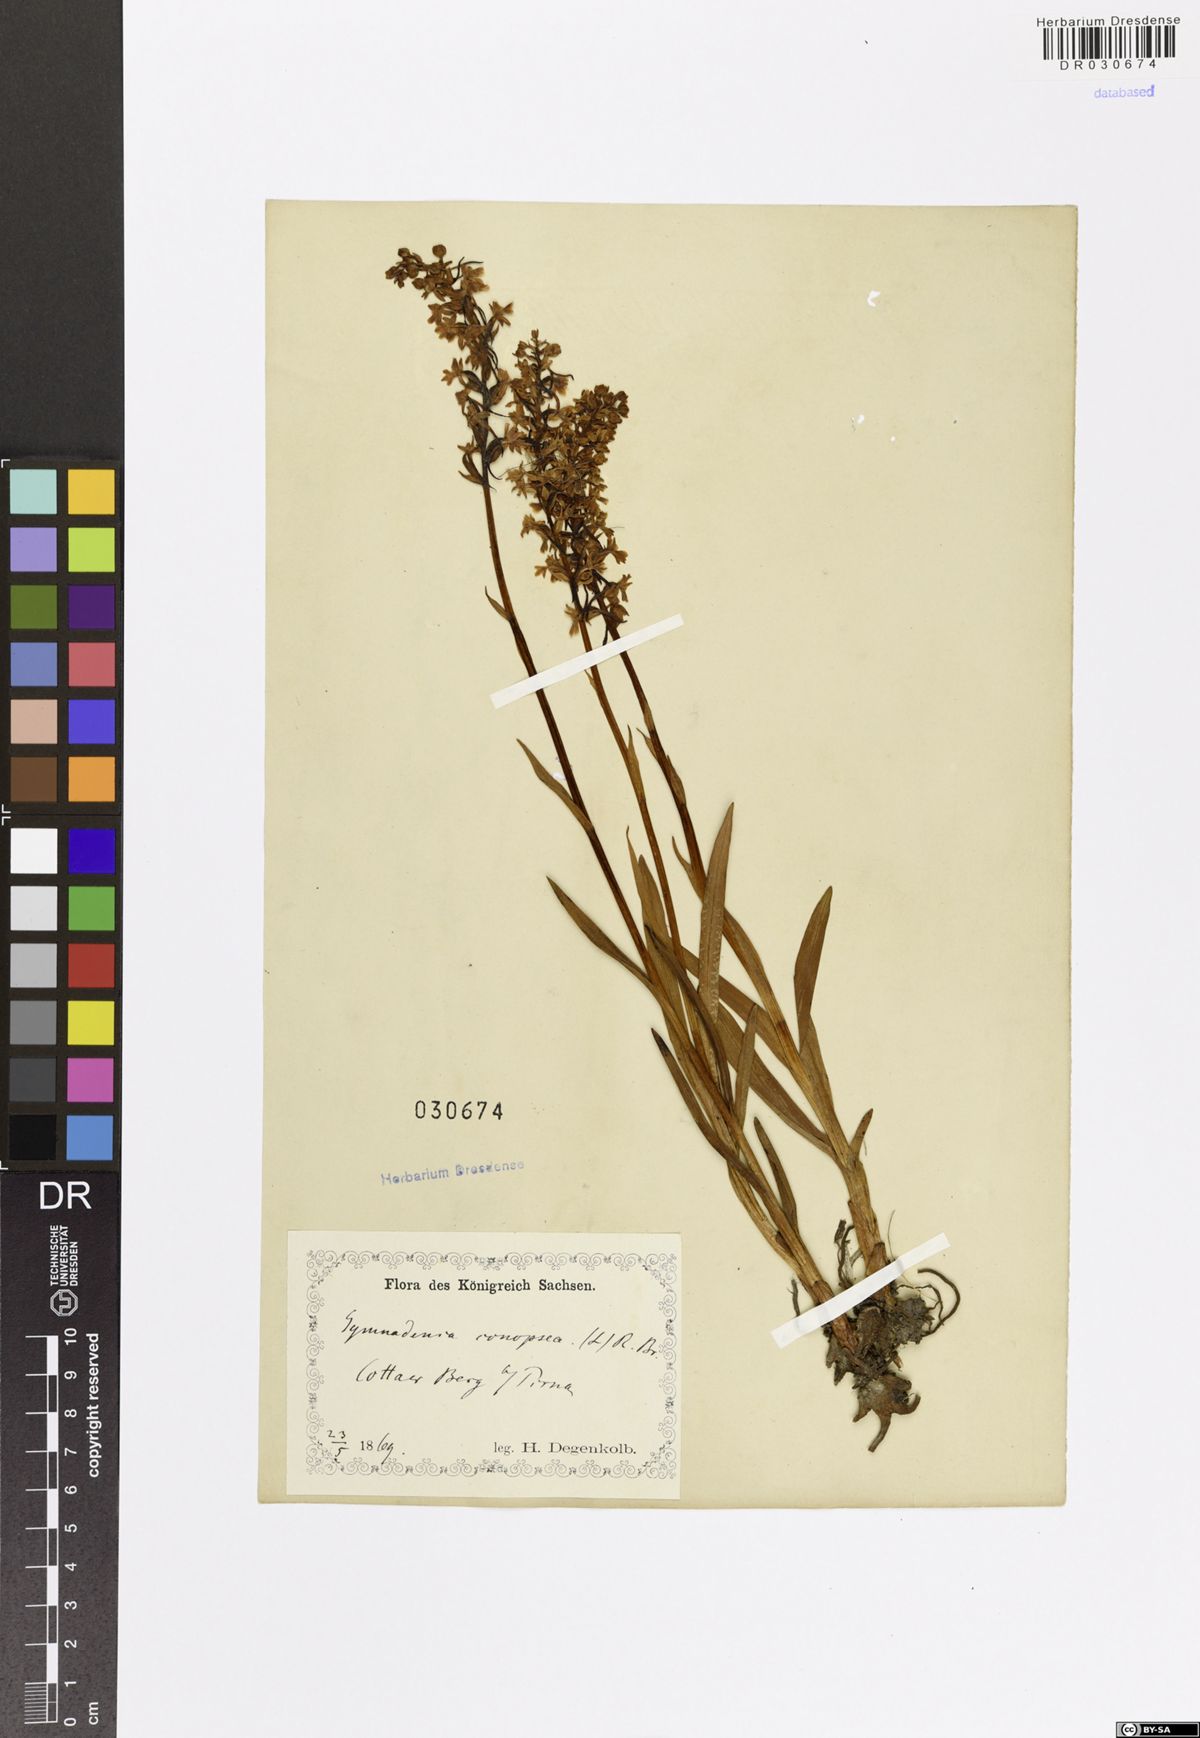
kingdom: Plantae
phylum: Tracheophyta
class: Liliopsida
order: Asparagales
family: Orchidaceae
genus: Gymnadenia
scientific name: Gymnadenia conopsea
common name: Fragrant orchid
